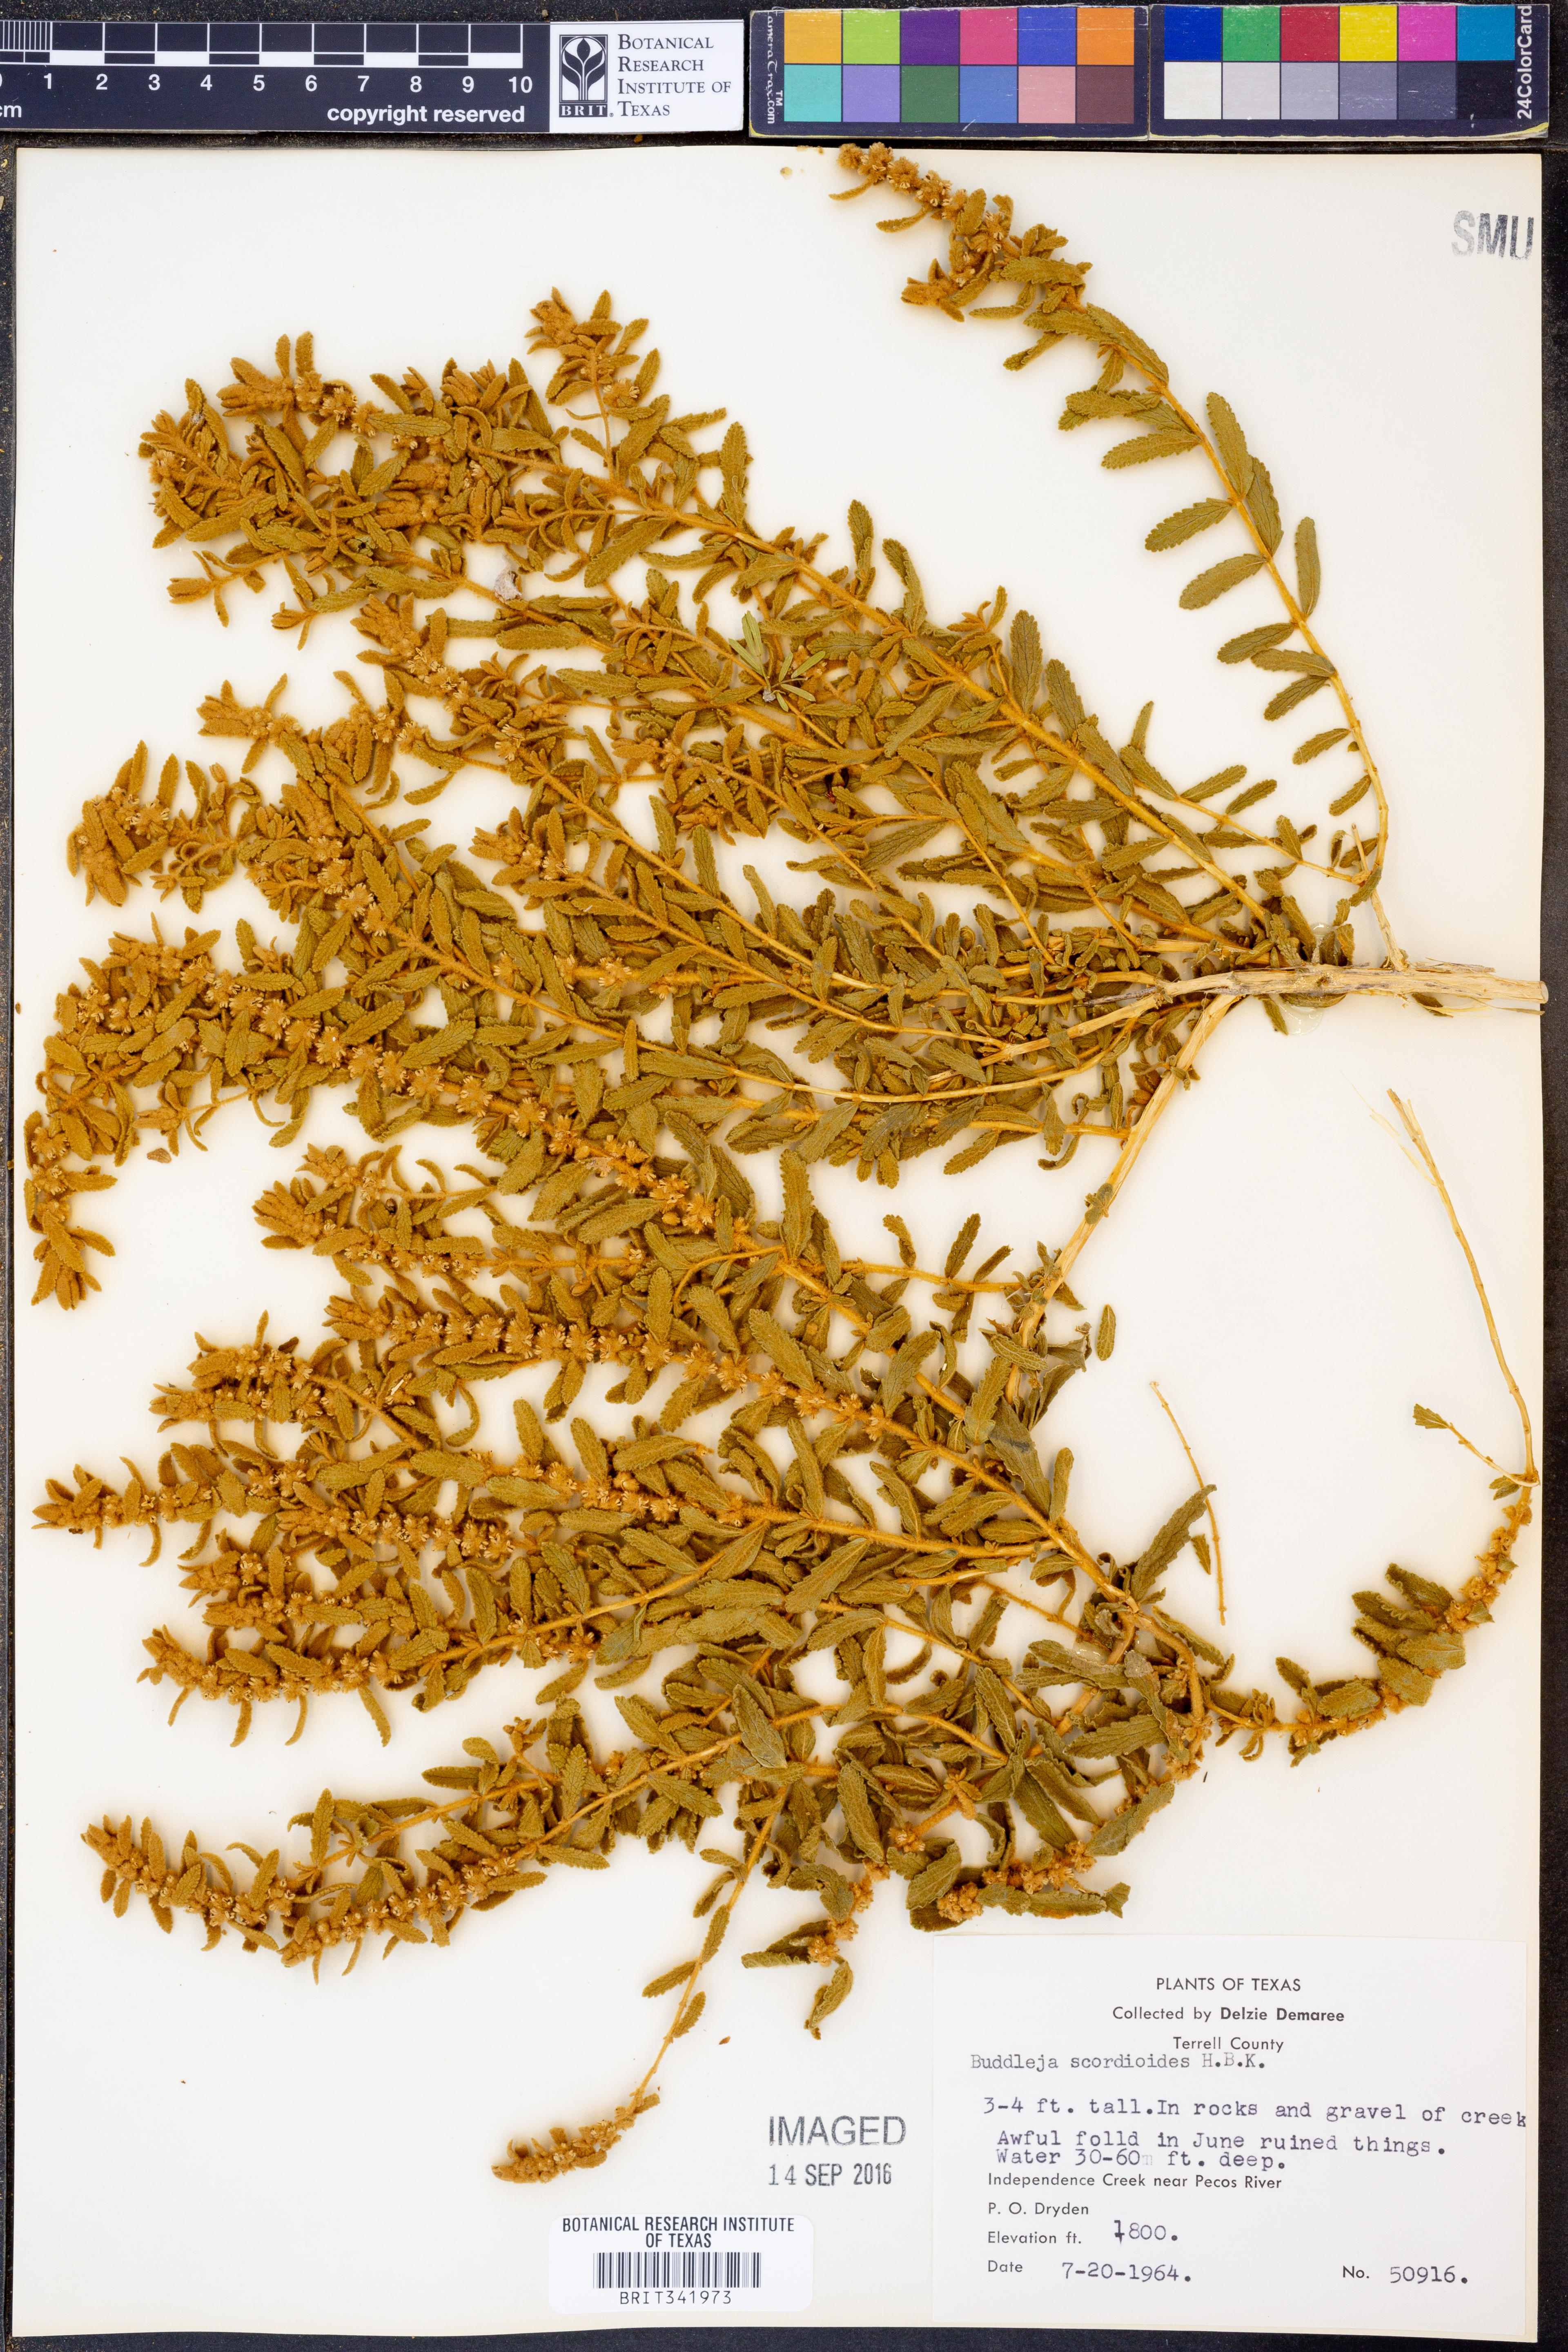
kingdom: Plantae
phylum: Tracheophyta
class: Magnoliopsida
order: Lamiales
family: Scrophulariaceae
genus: Buddleja
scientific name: Buddleja scordioides
